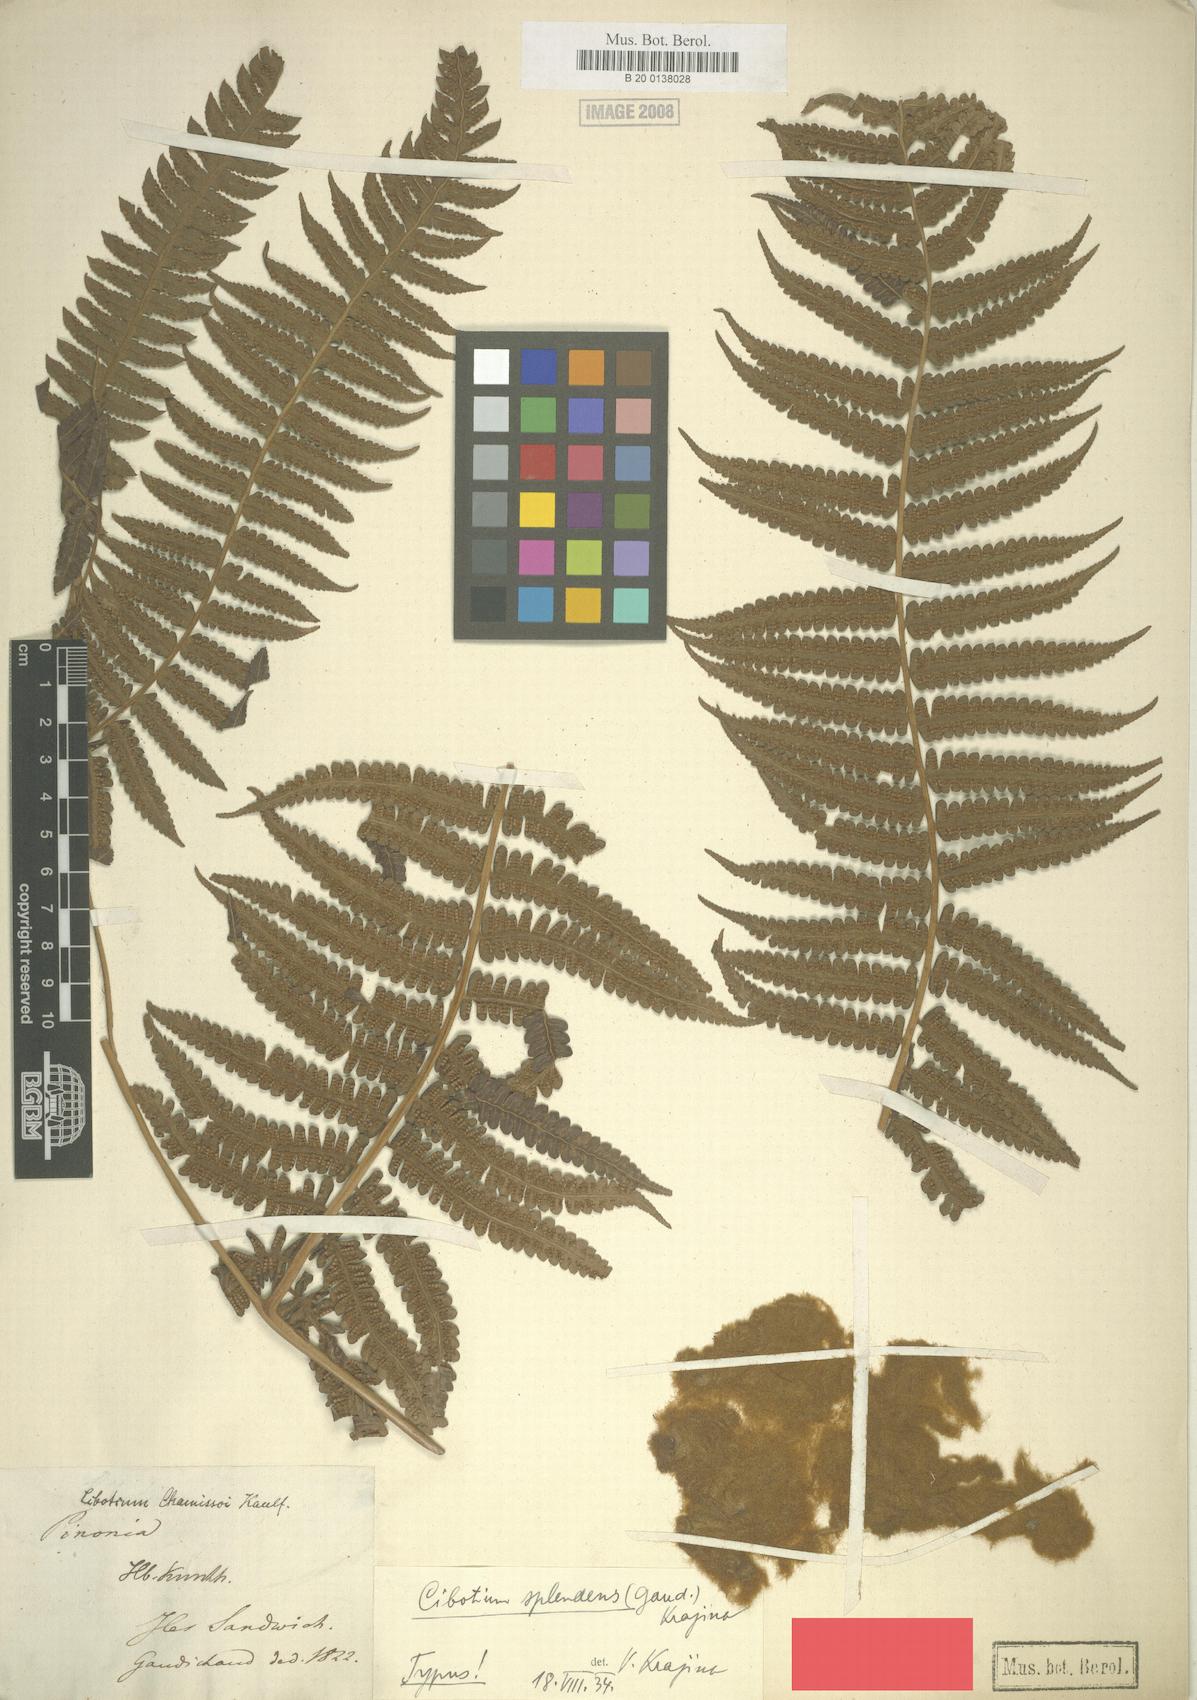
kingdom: Plantae
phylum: Tracheophyta
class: Polypodiopsida
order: Cyatheales
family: Cibotiaceae
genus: Cibotium
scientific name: Cibotium chamissoi
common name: Hawaiian tree fern
